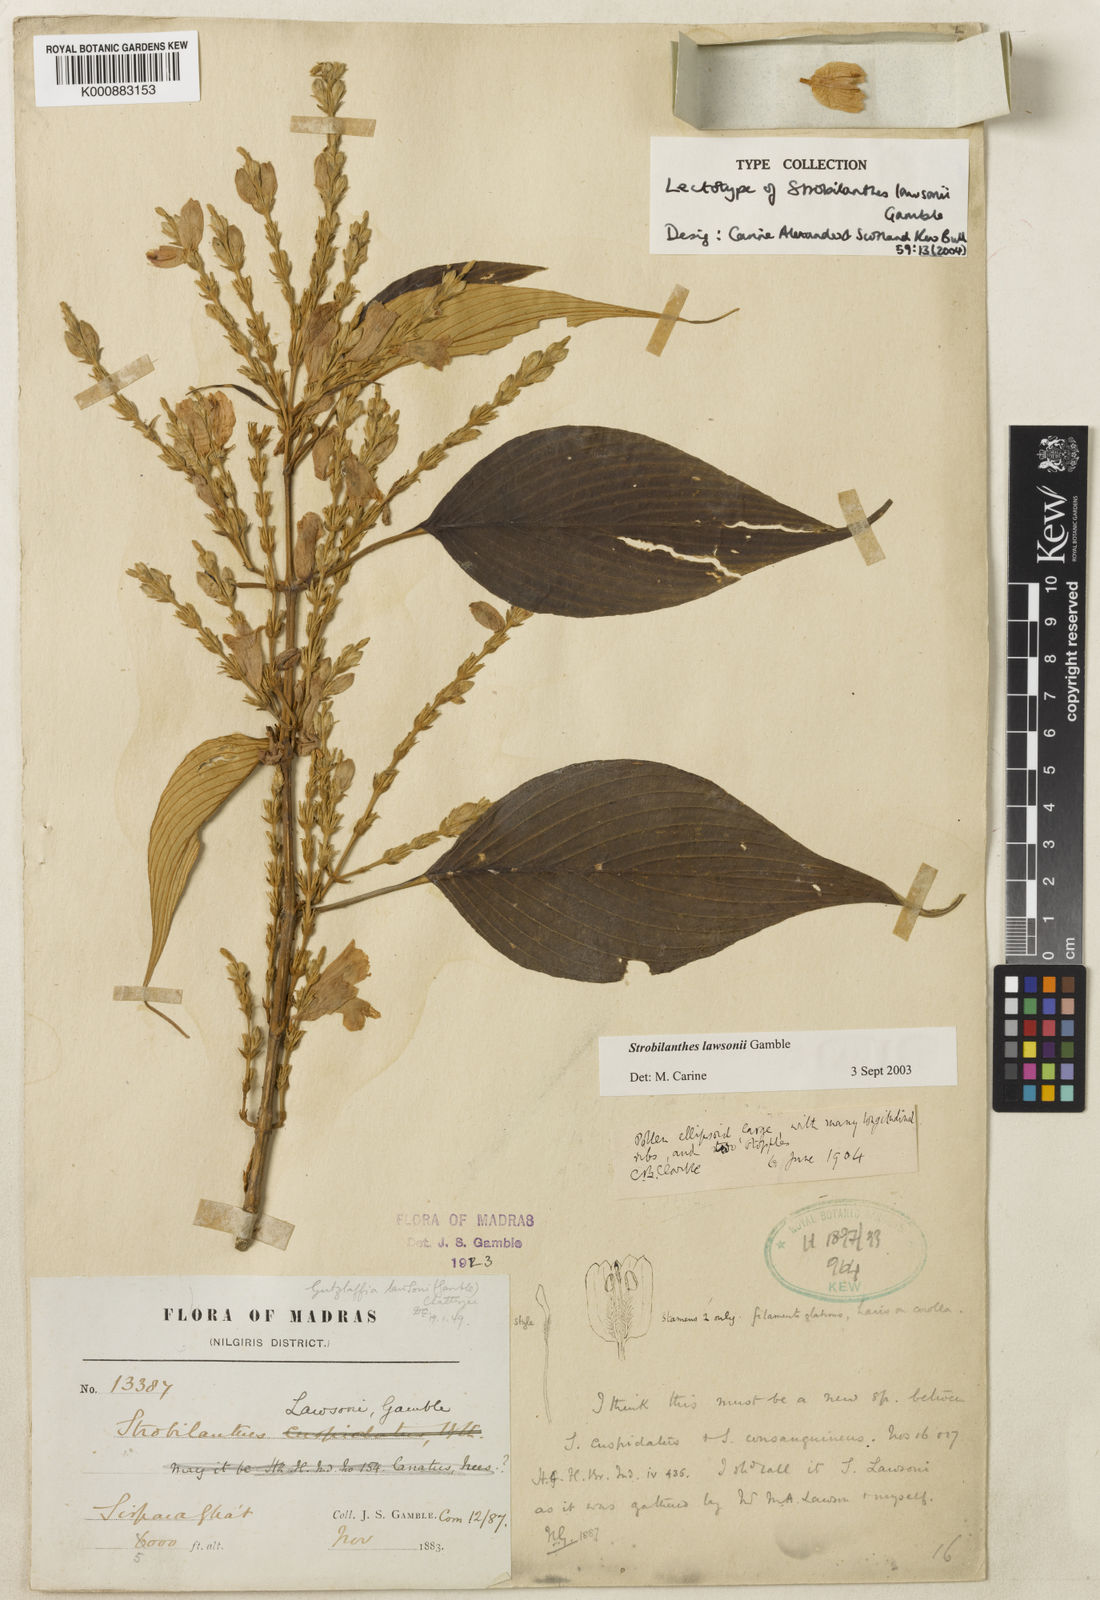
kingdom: Plantae
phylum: Tracheophyta
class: Magnoliopsida
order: Lamiales
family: Acanthaceae
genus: Strobilanthes
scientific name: Strobilanthes lawsonii
